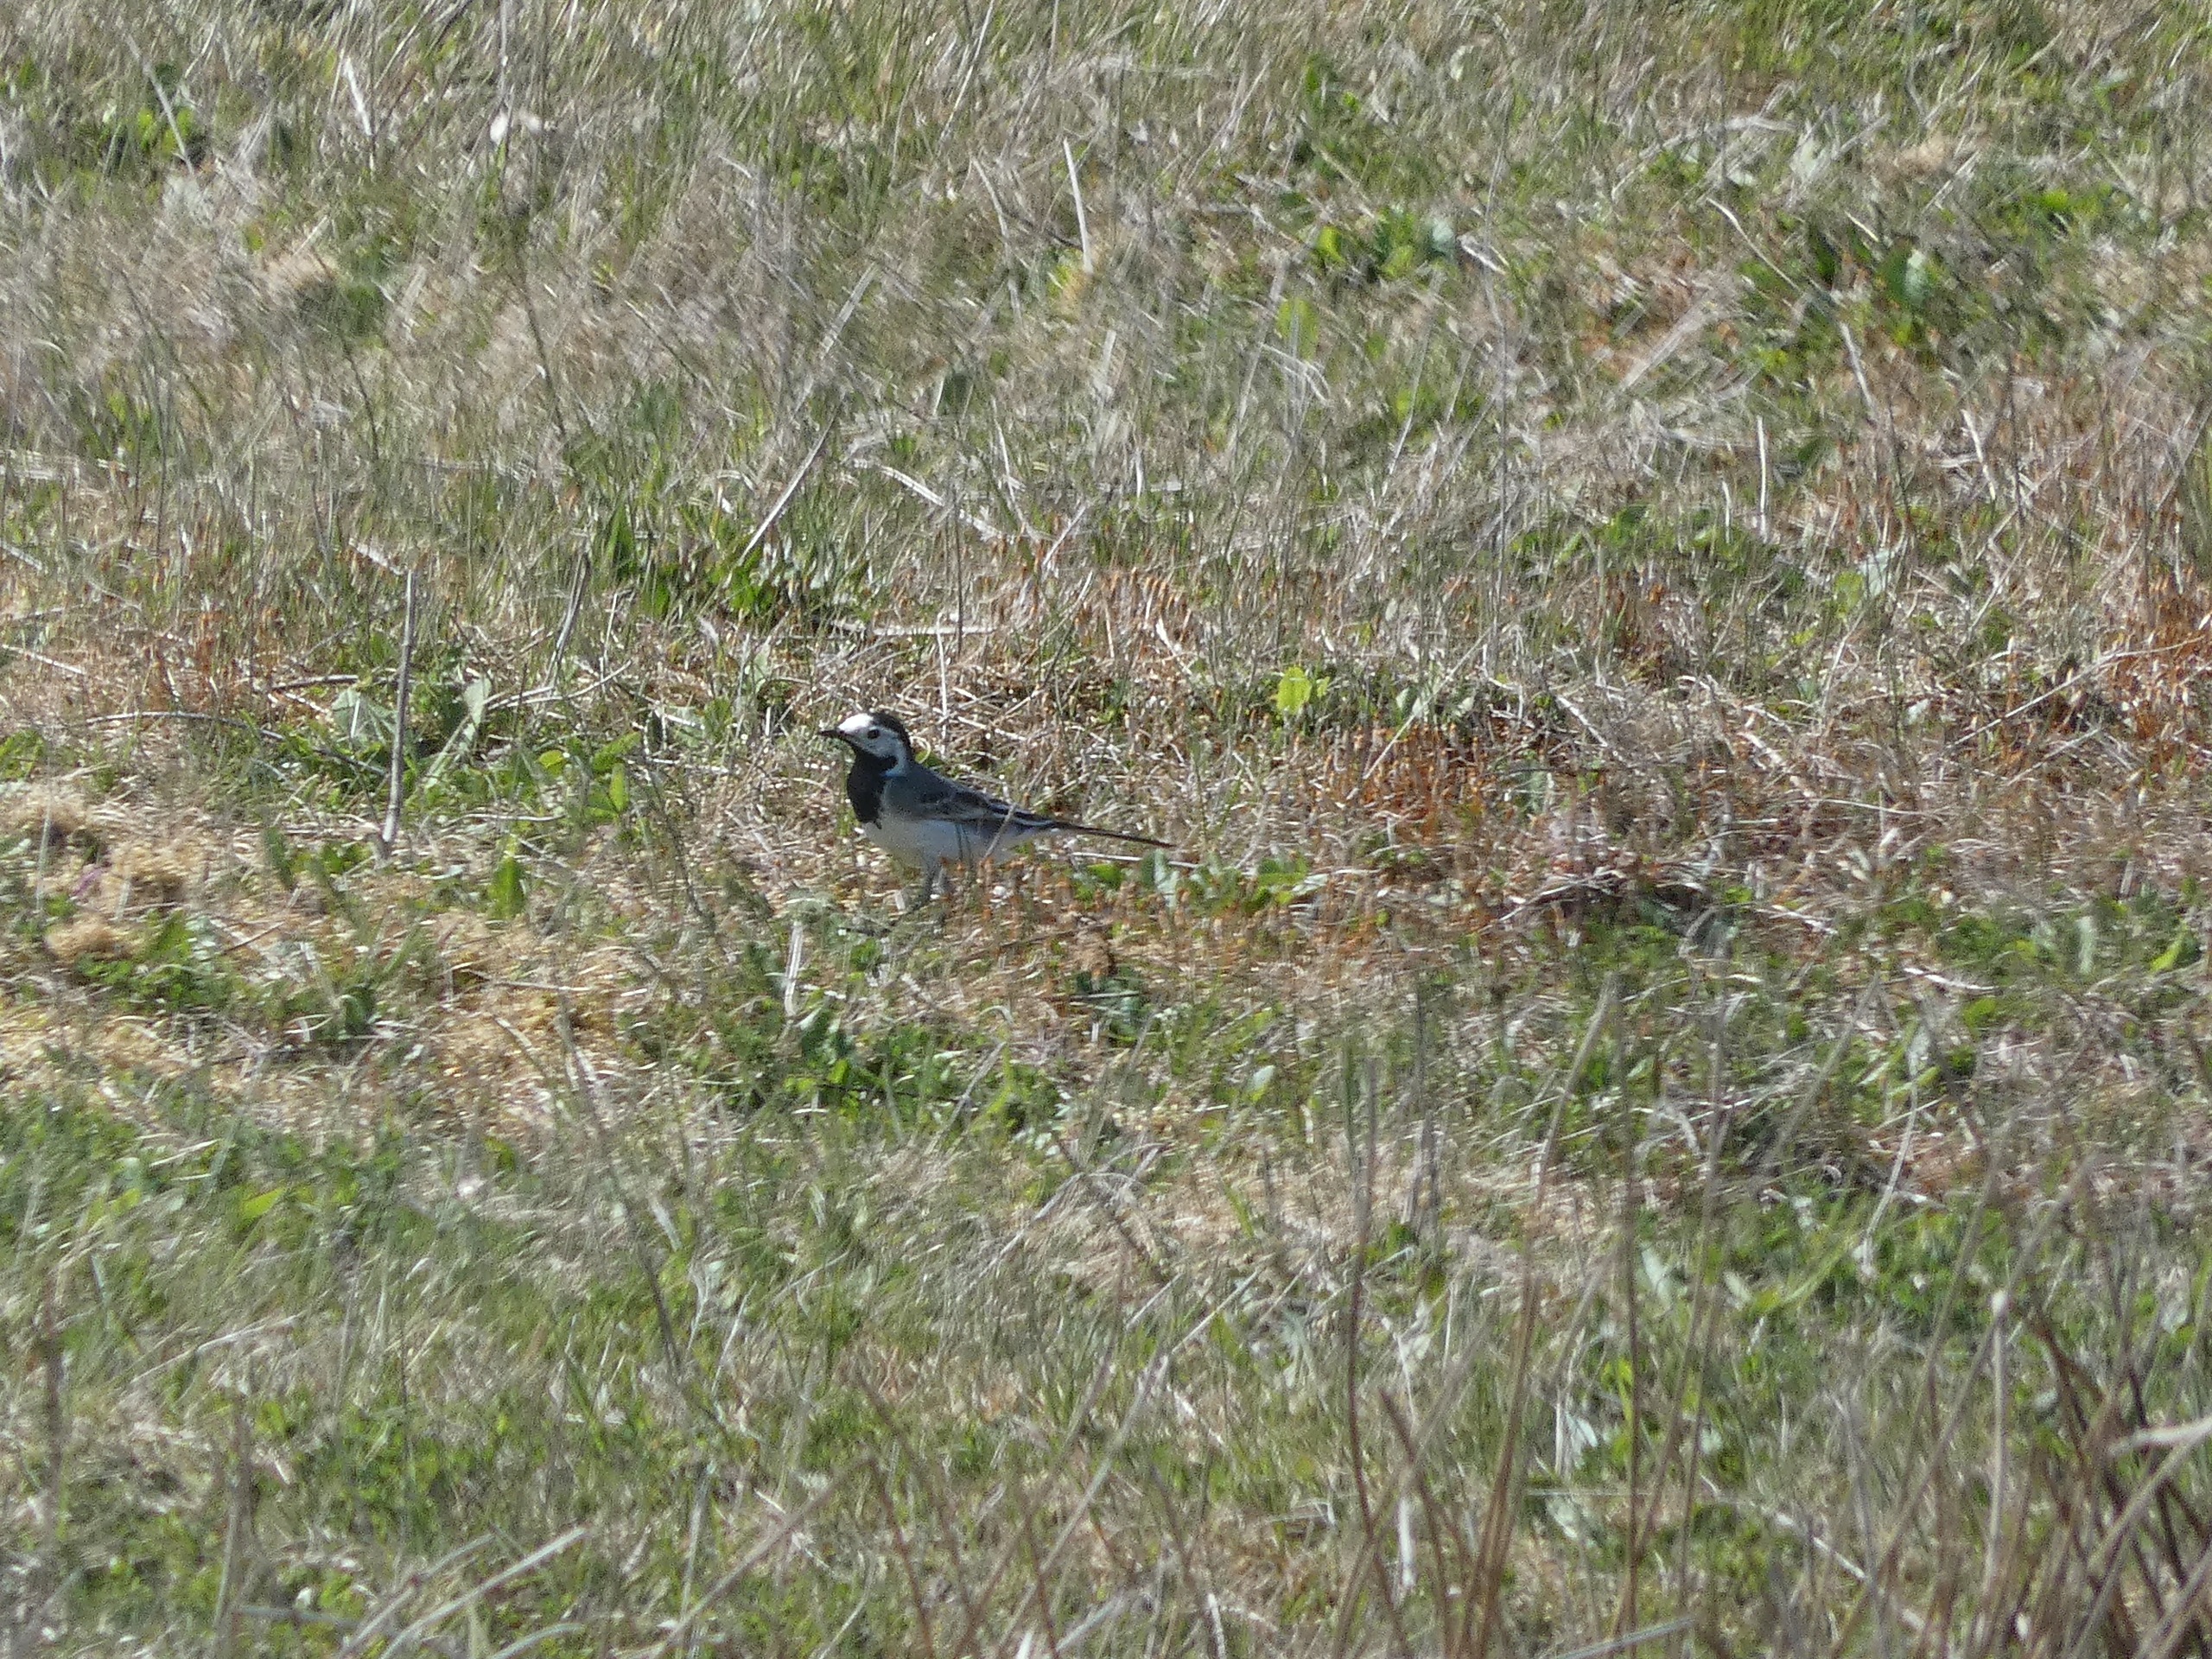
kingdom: Animalia
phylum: Chordata
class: Aves
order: Passeriformes
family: Motacillidae
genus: Motacilla
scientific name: Motacilla alba
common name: Hvid vipstjert
